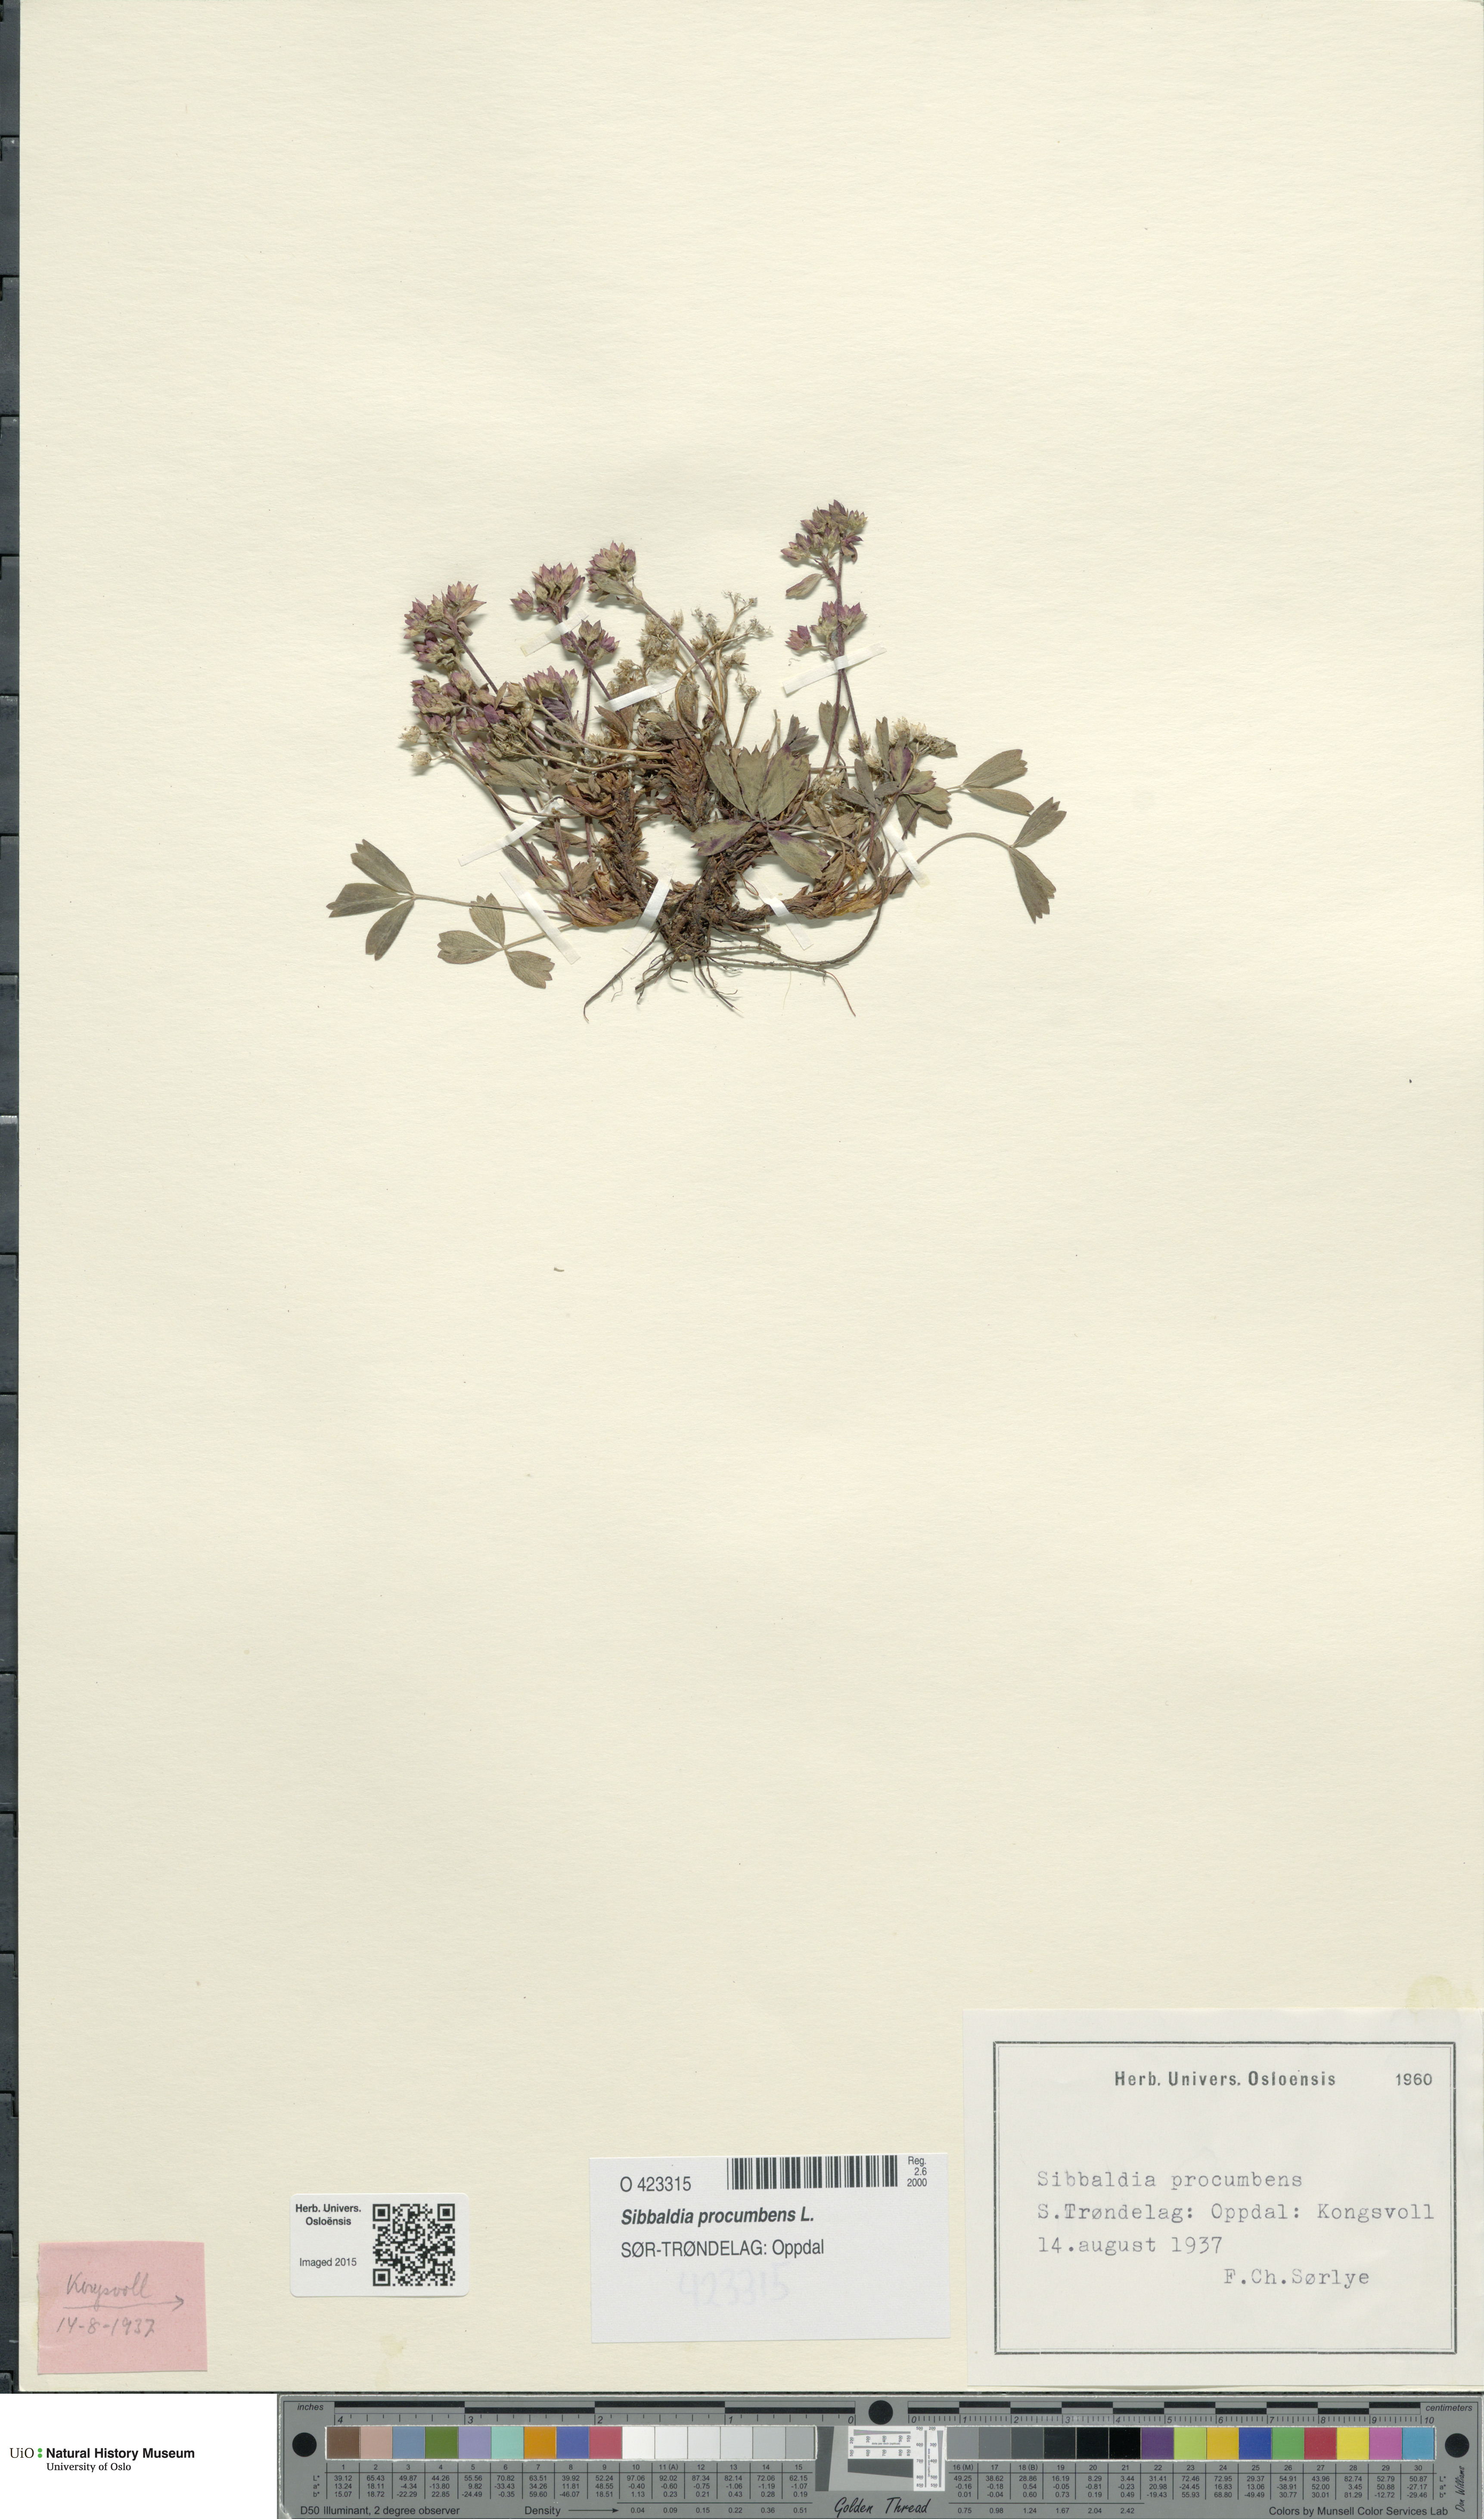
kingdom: Plantae
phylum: Tracheophyta
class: Magnoliopsida
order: Rosales
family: Rosaceae
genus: Sibbaldia
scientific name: Sibbaldia procumbens
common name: Creeping sibbaldia
